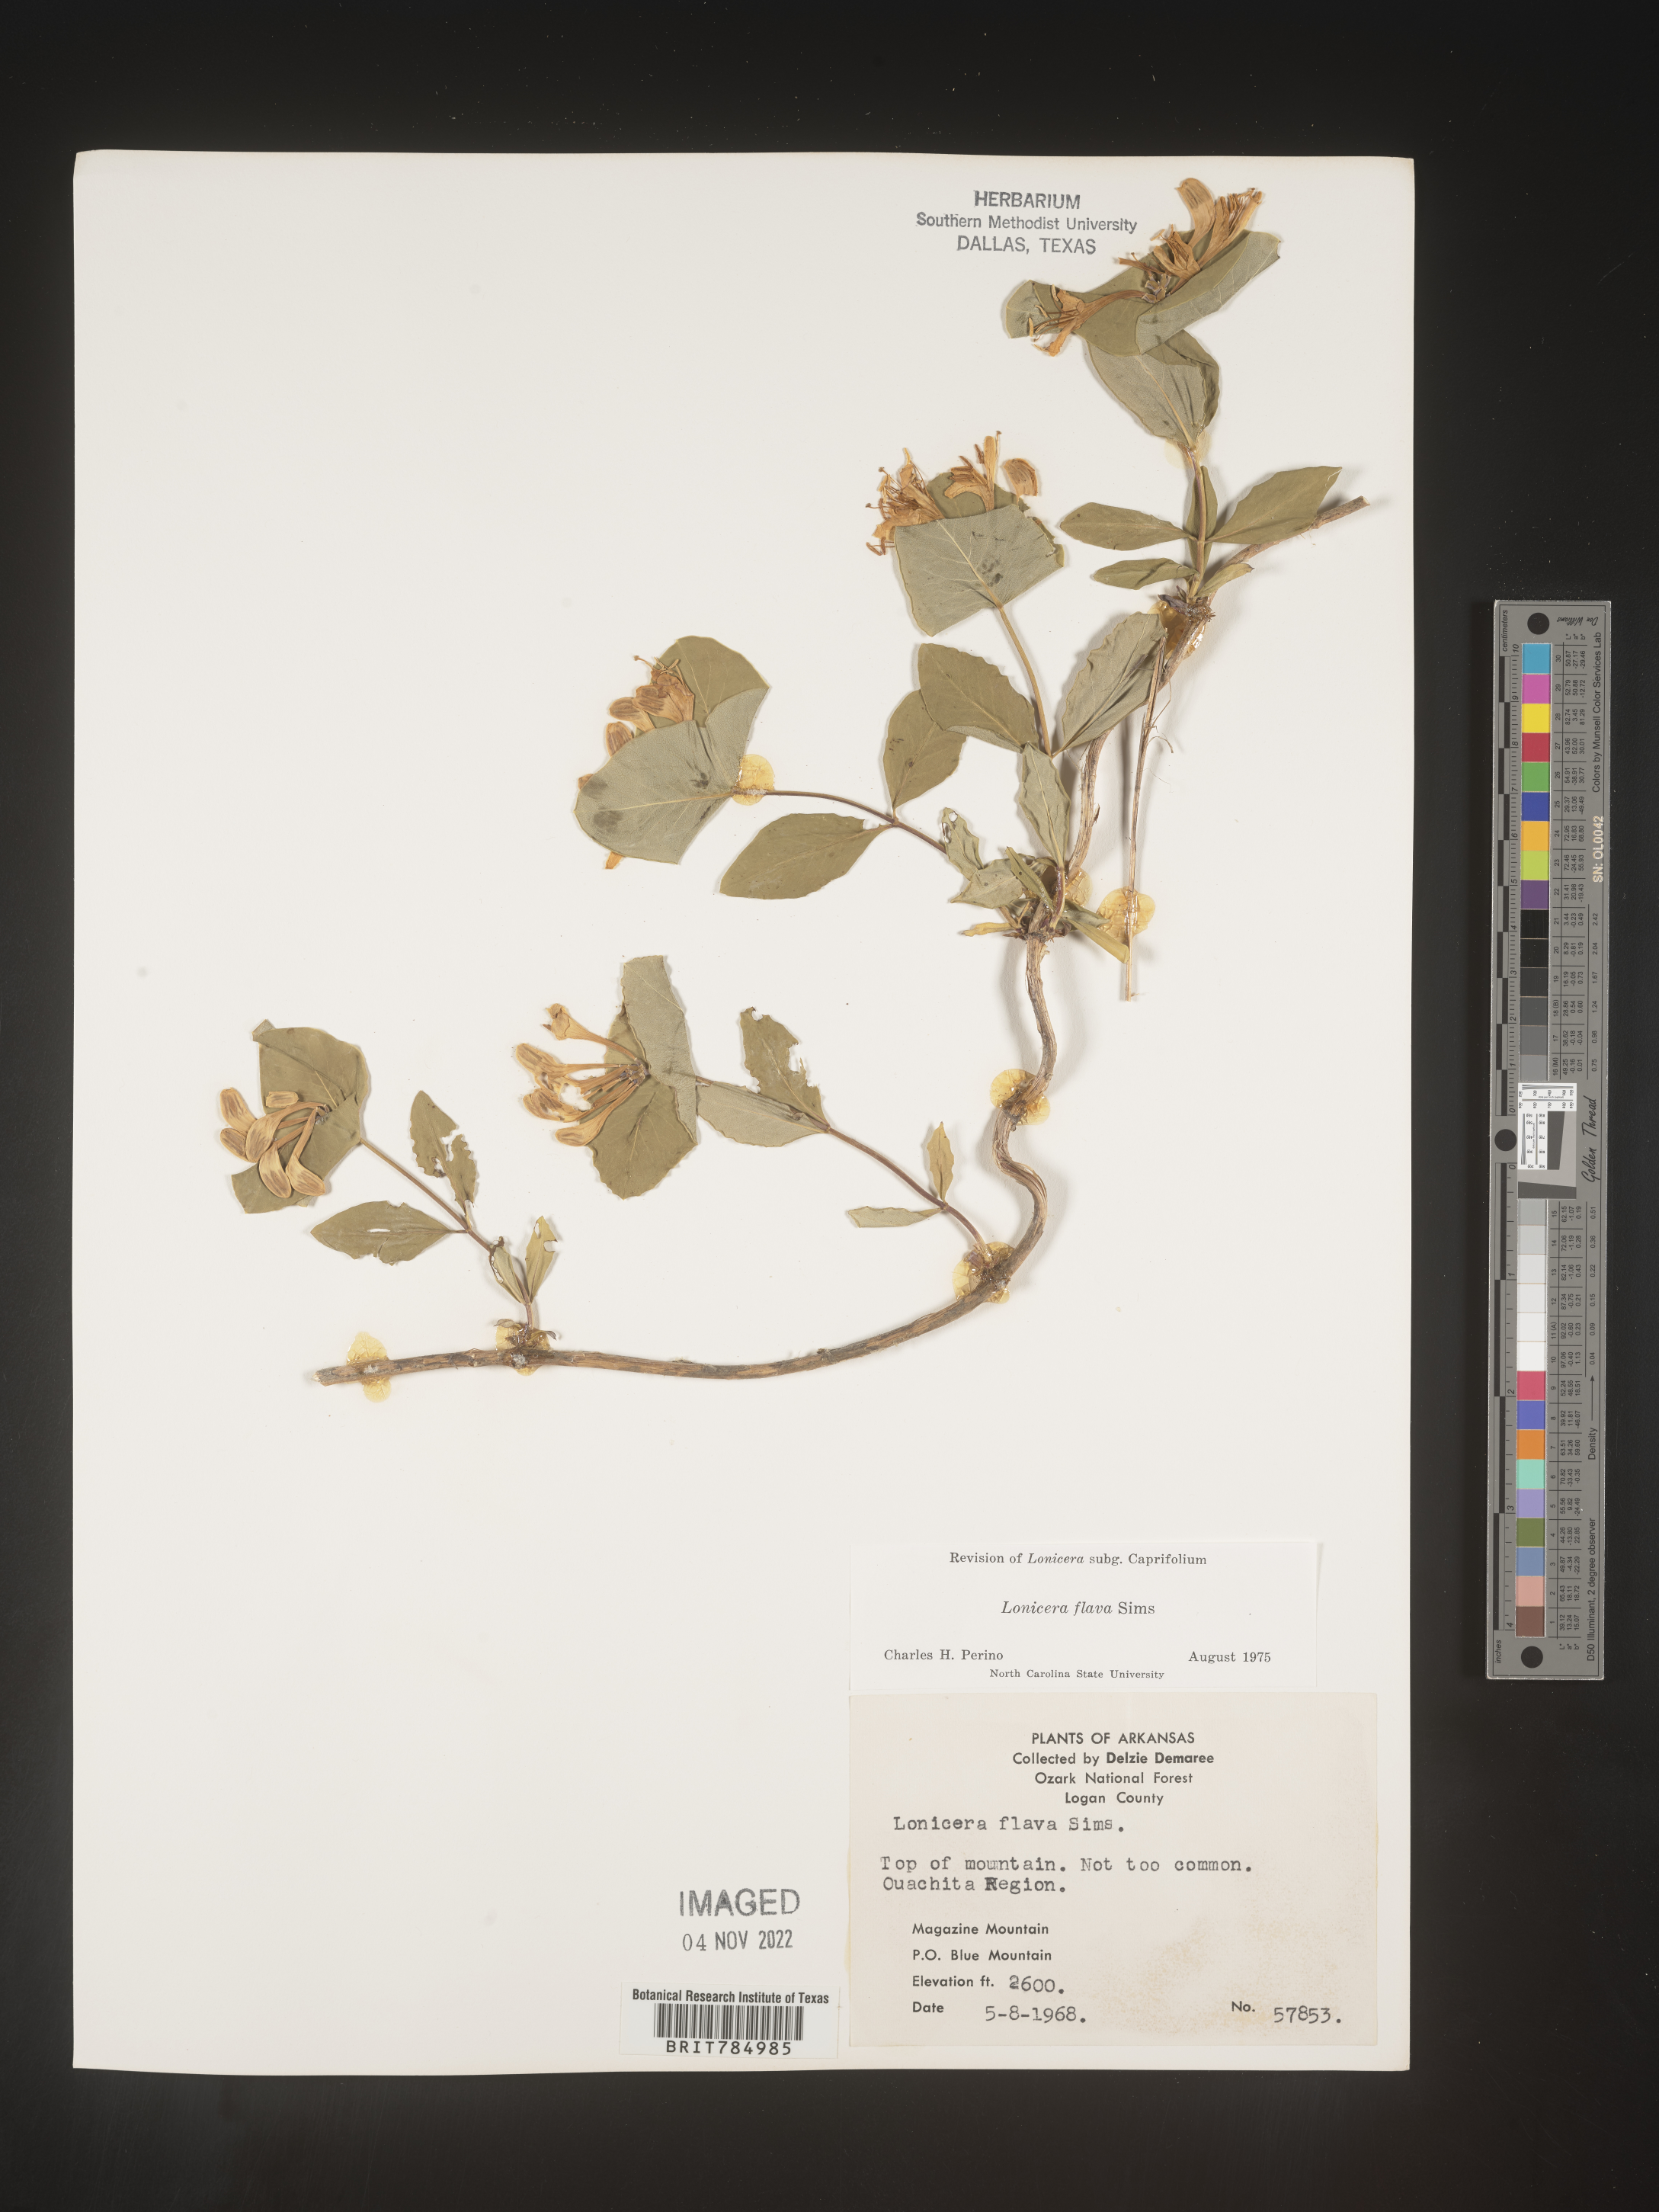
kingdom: Plantae
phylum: Tracheophyta
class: Magnoliopsida
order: Dipsacales
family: Caprifoliaceae
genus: Lonicera
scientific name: Lonicera flava
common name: Yellow honeysuckle
